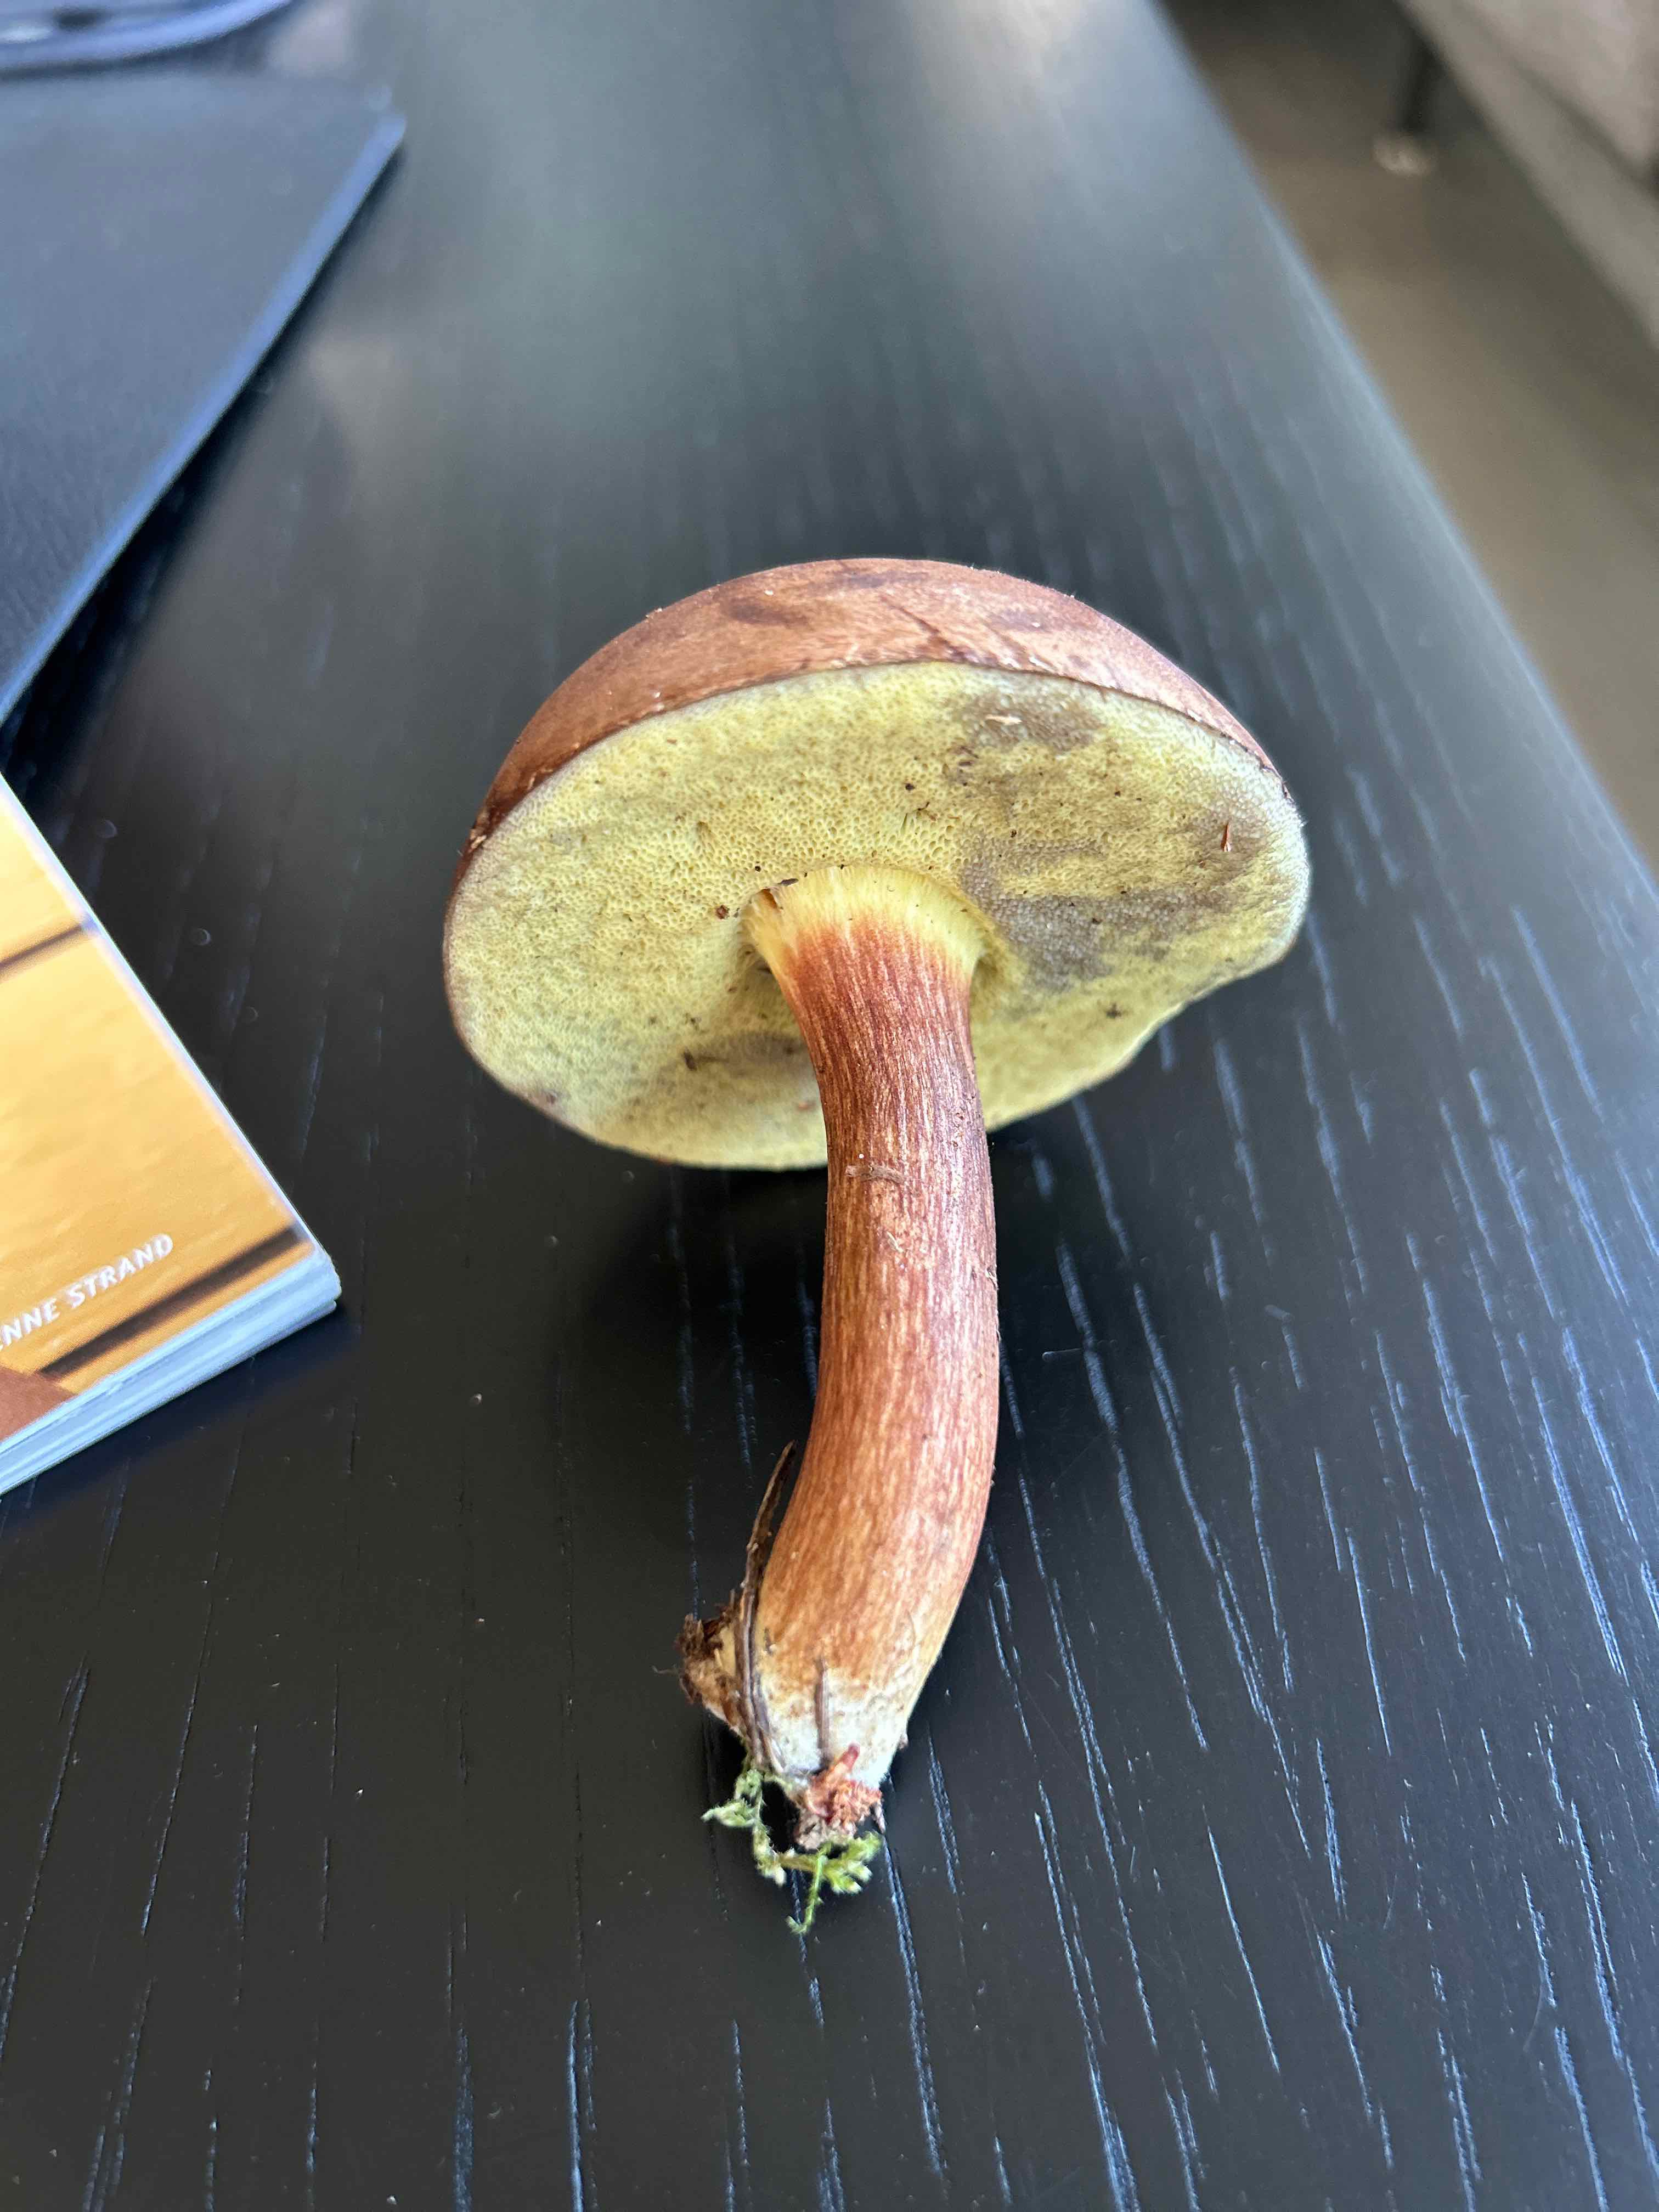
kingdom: Fungi
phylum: Basidiomycota
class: Agaricomycetes
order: Boletales
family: Boletaceae
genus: Imleria
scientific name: Imleria badia
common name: brunstokket rørhat
